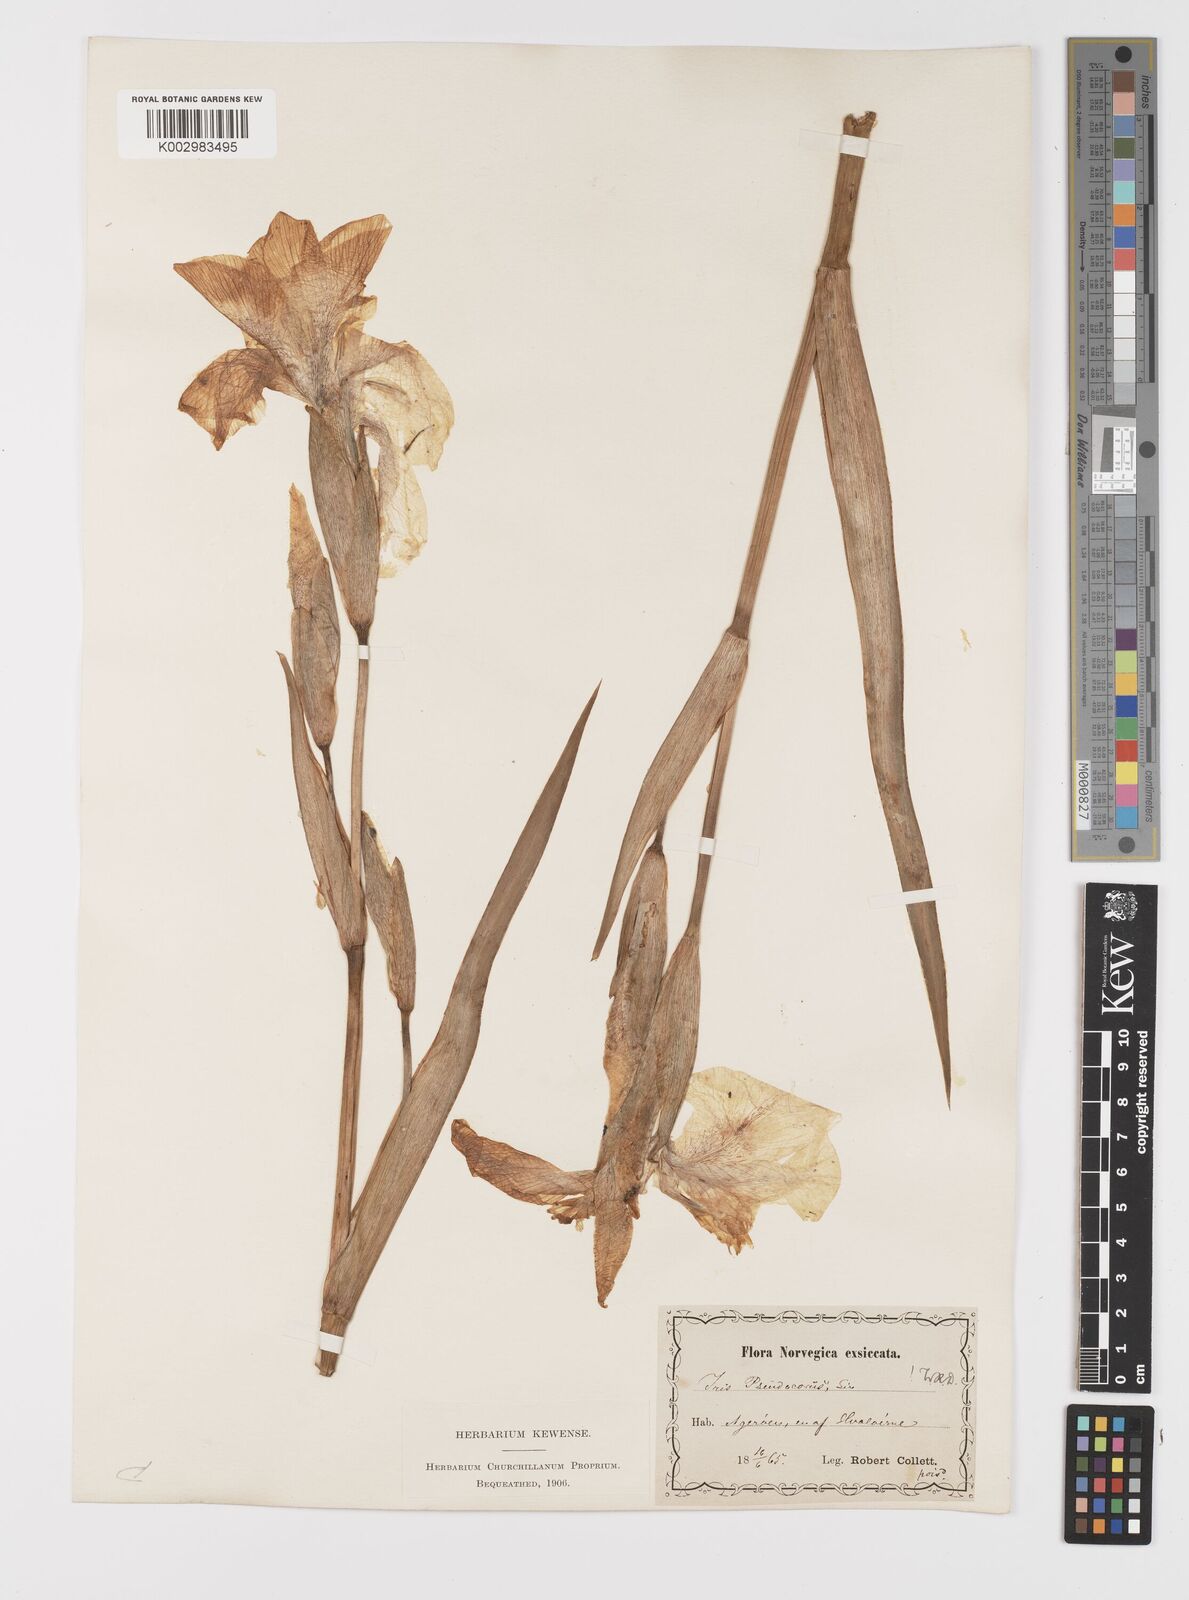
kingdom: Plantae
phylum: Tracheophyta
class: Liliopsida
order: Asparagales
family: Iridaceae
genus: Iris
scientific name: Iris pseudacorus
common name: Yellow flag
